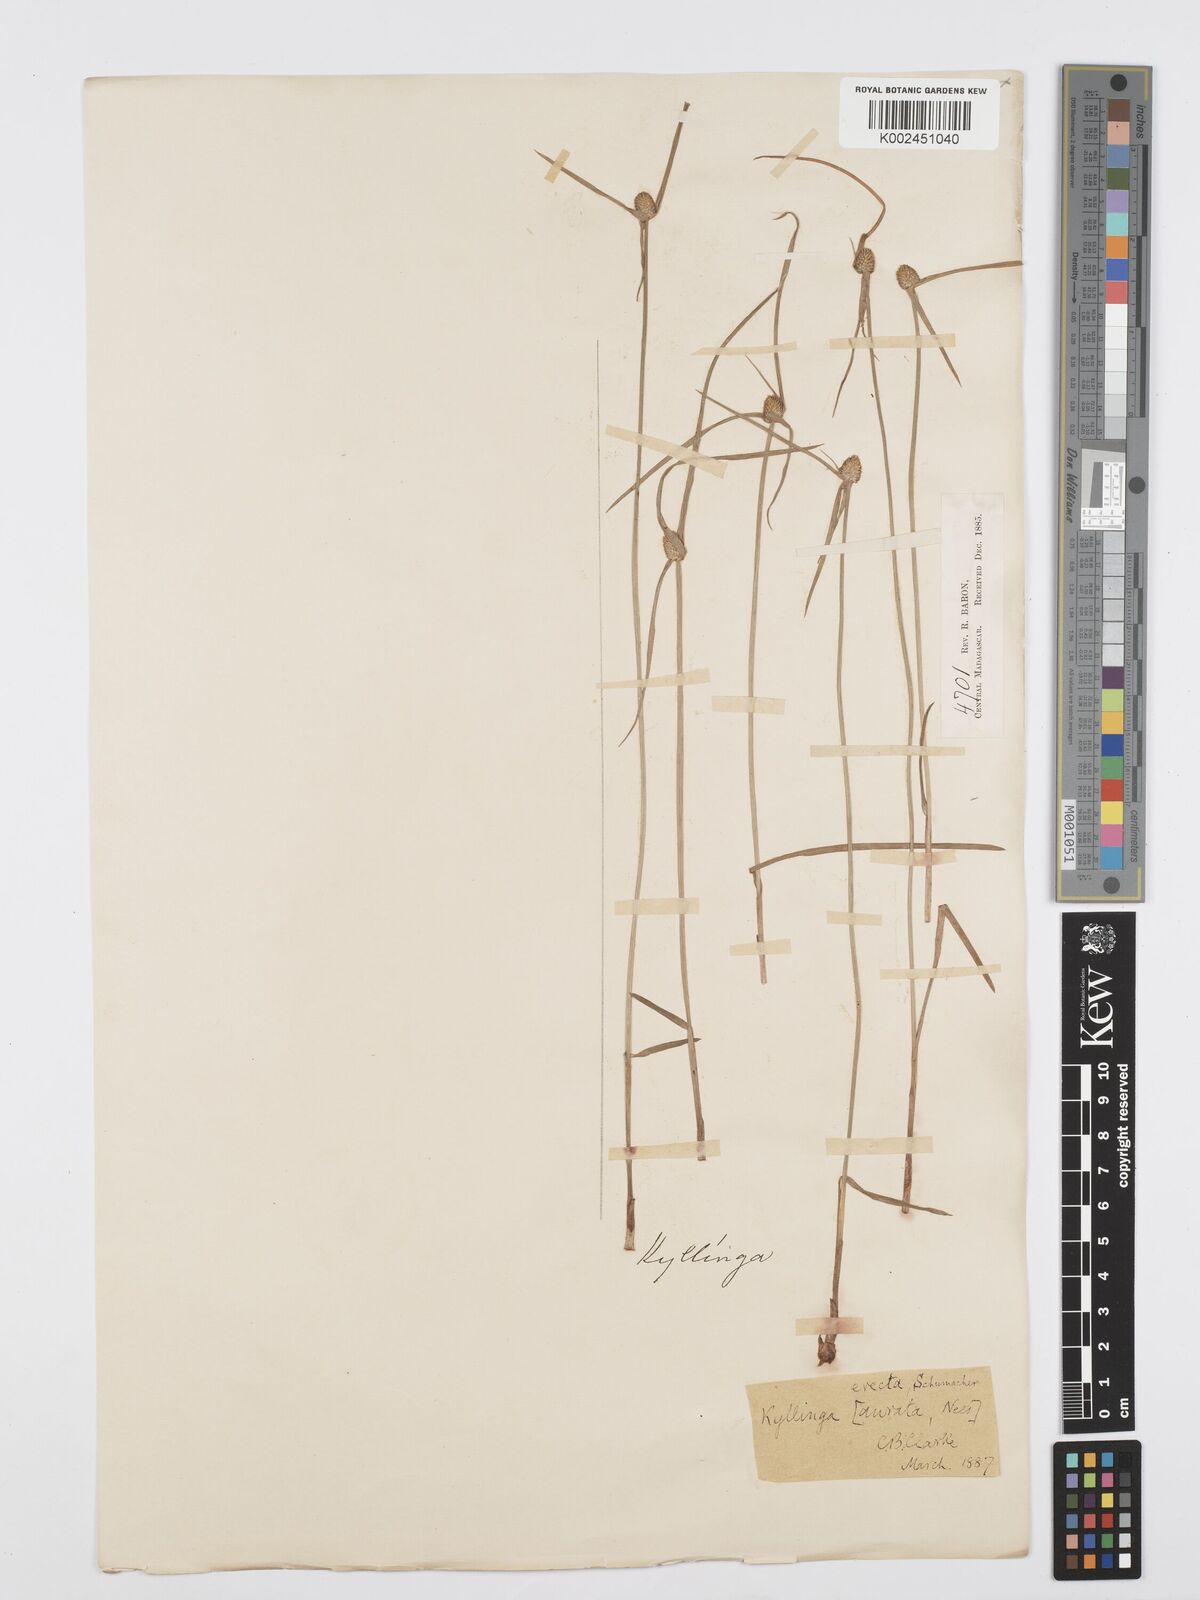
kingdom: Plantae
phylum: Tracheophyta
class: Liliopsida
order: Poales
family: Cyperaceae
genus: Cyperus
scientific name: Cyperus erectus
